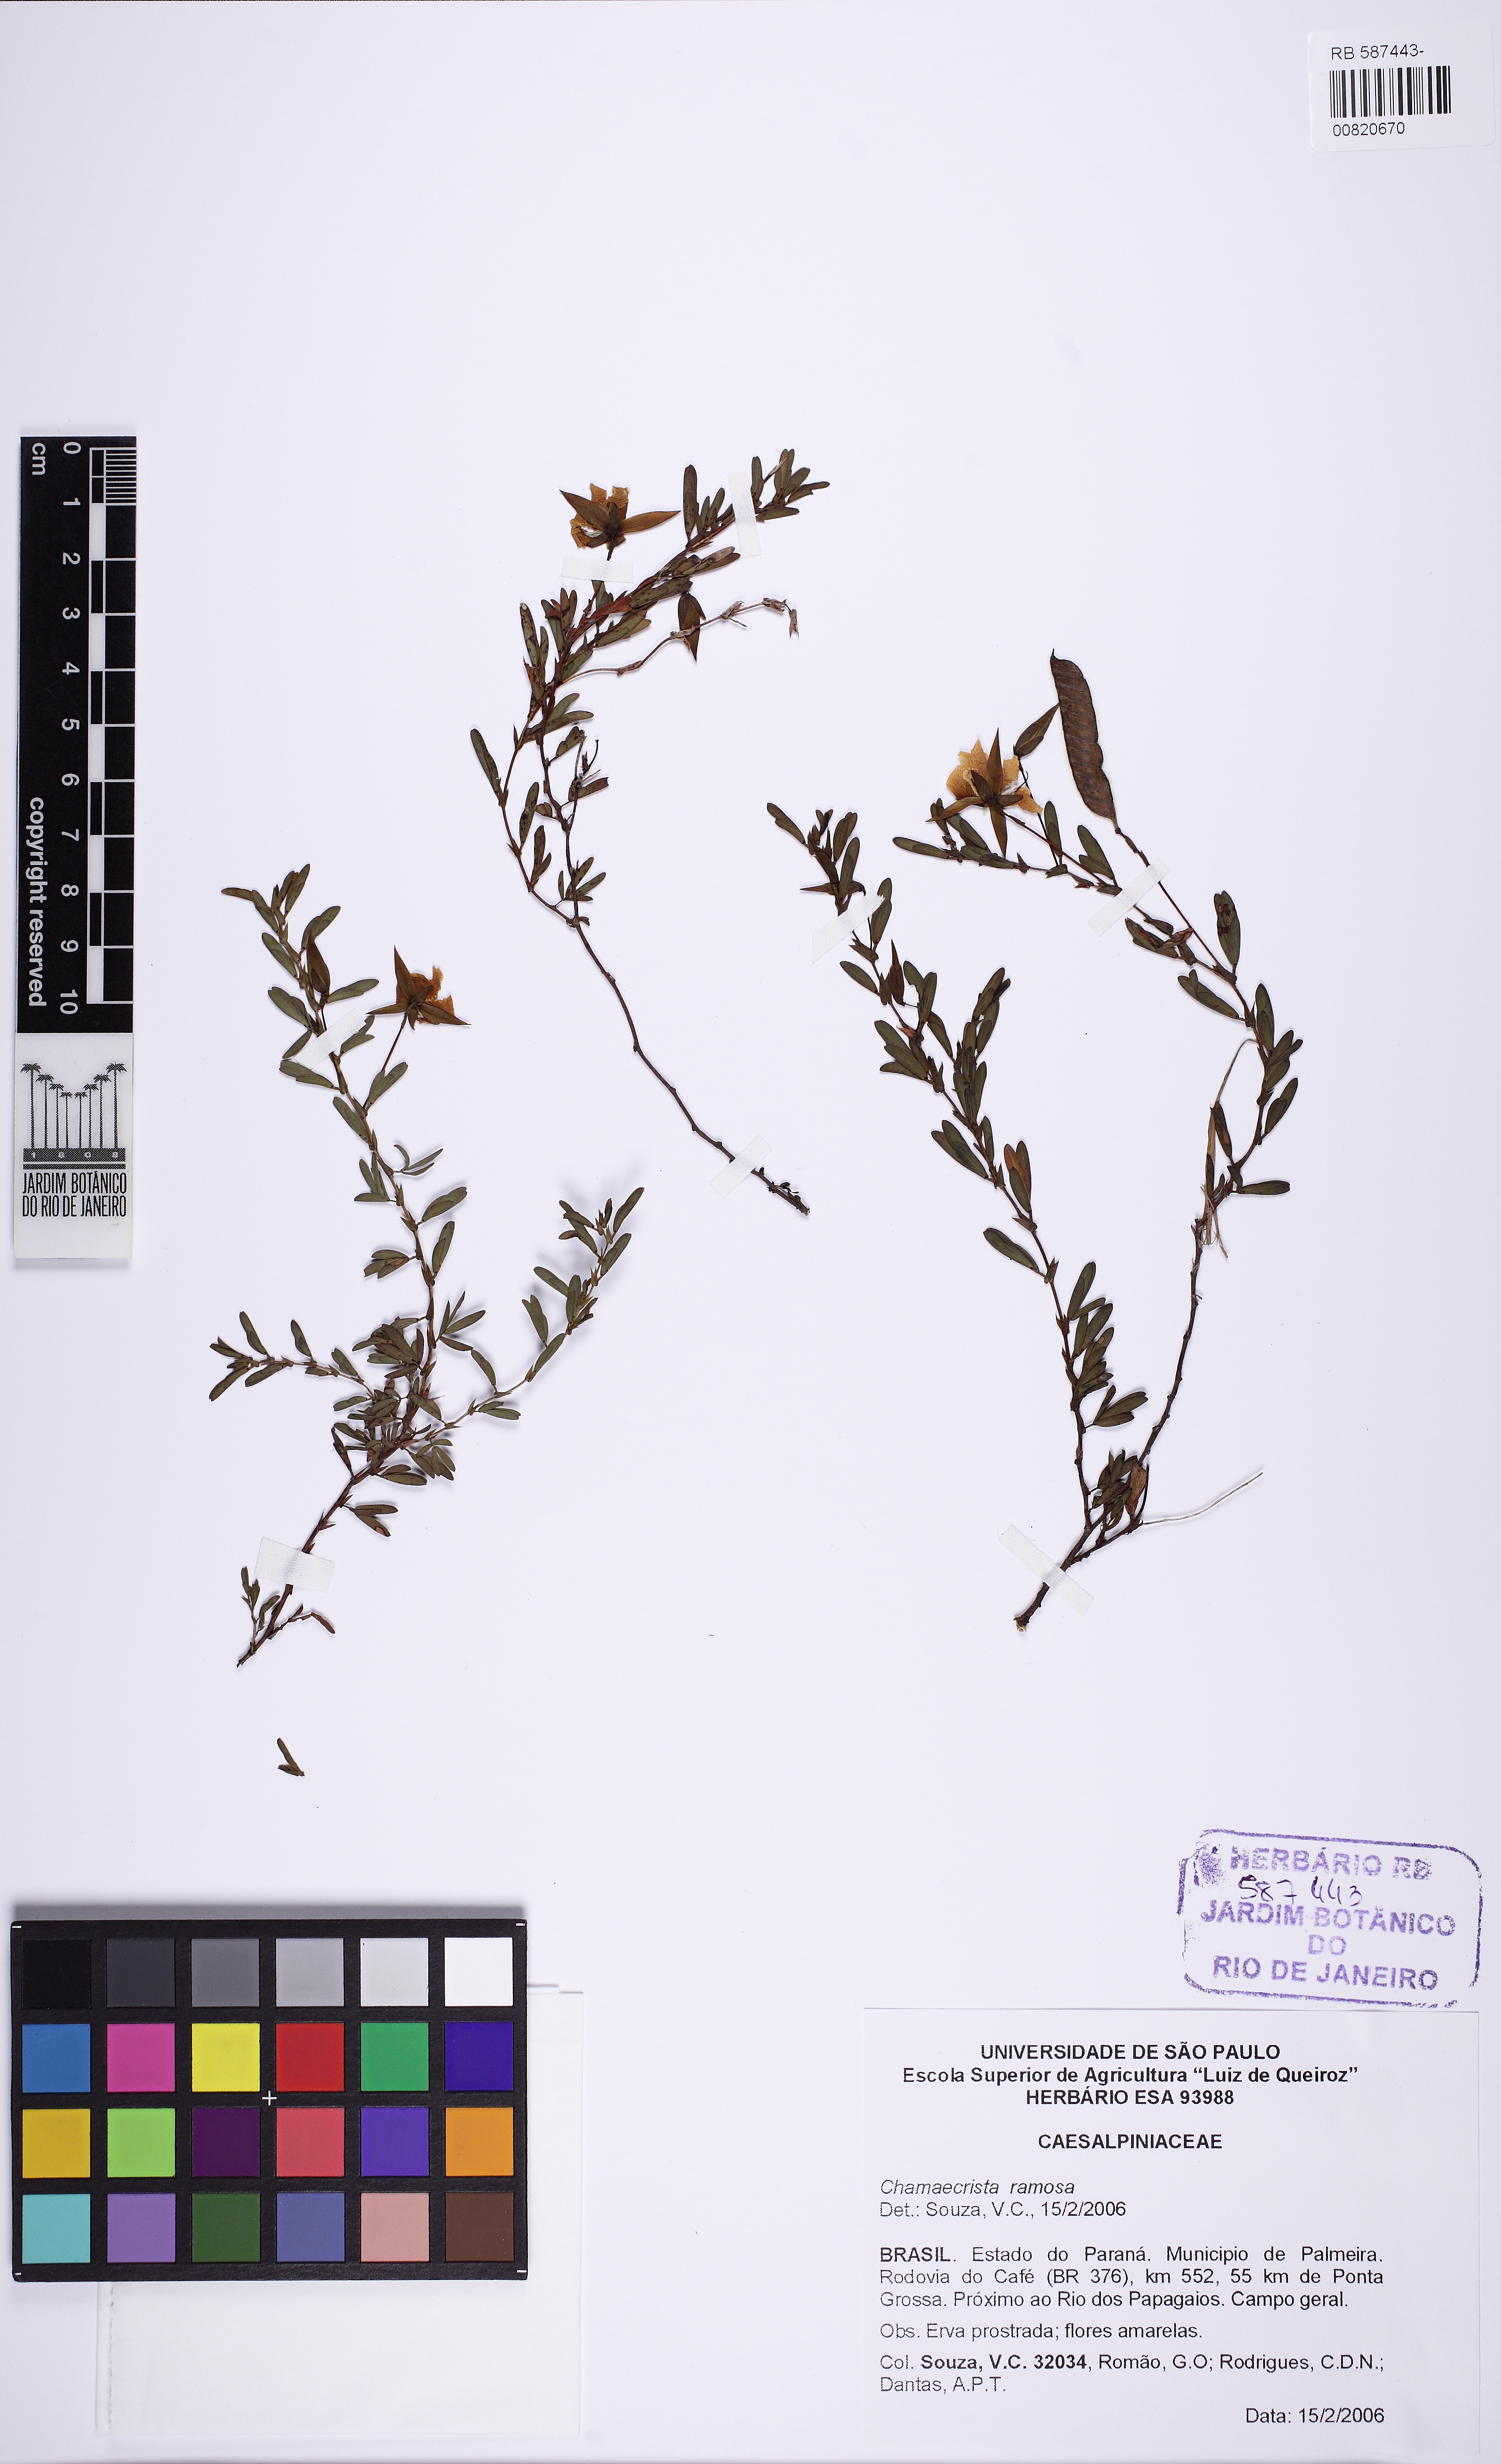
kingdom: Plantae
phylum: Tracheophyta
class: Magnoliopsida
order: Fabales
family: Fabaceae
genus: Chamaecrista
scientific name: Chamaecrista ramosa
